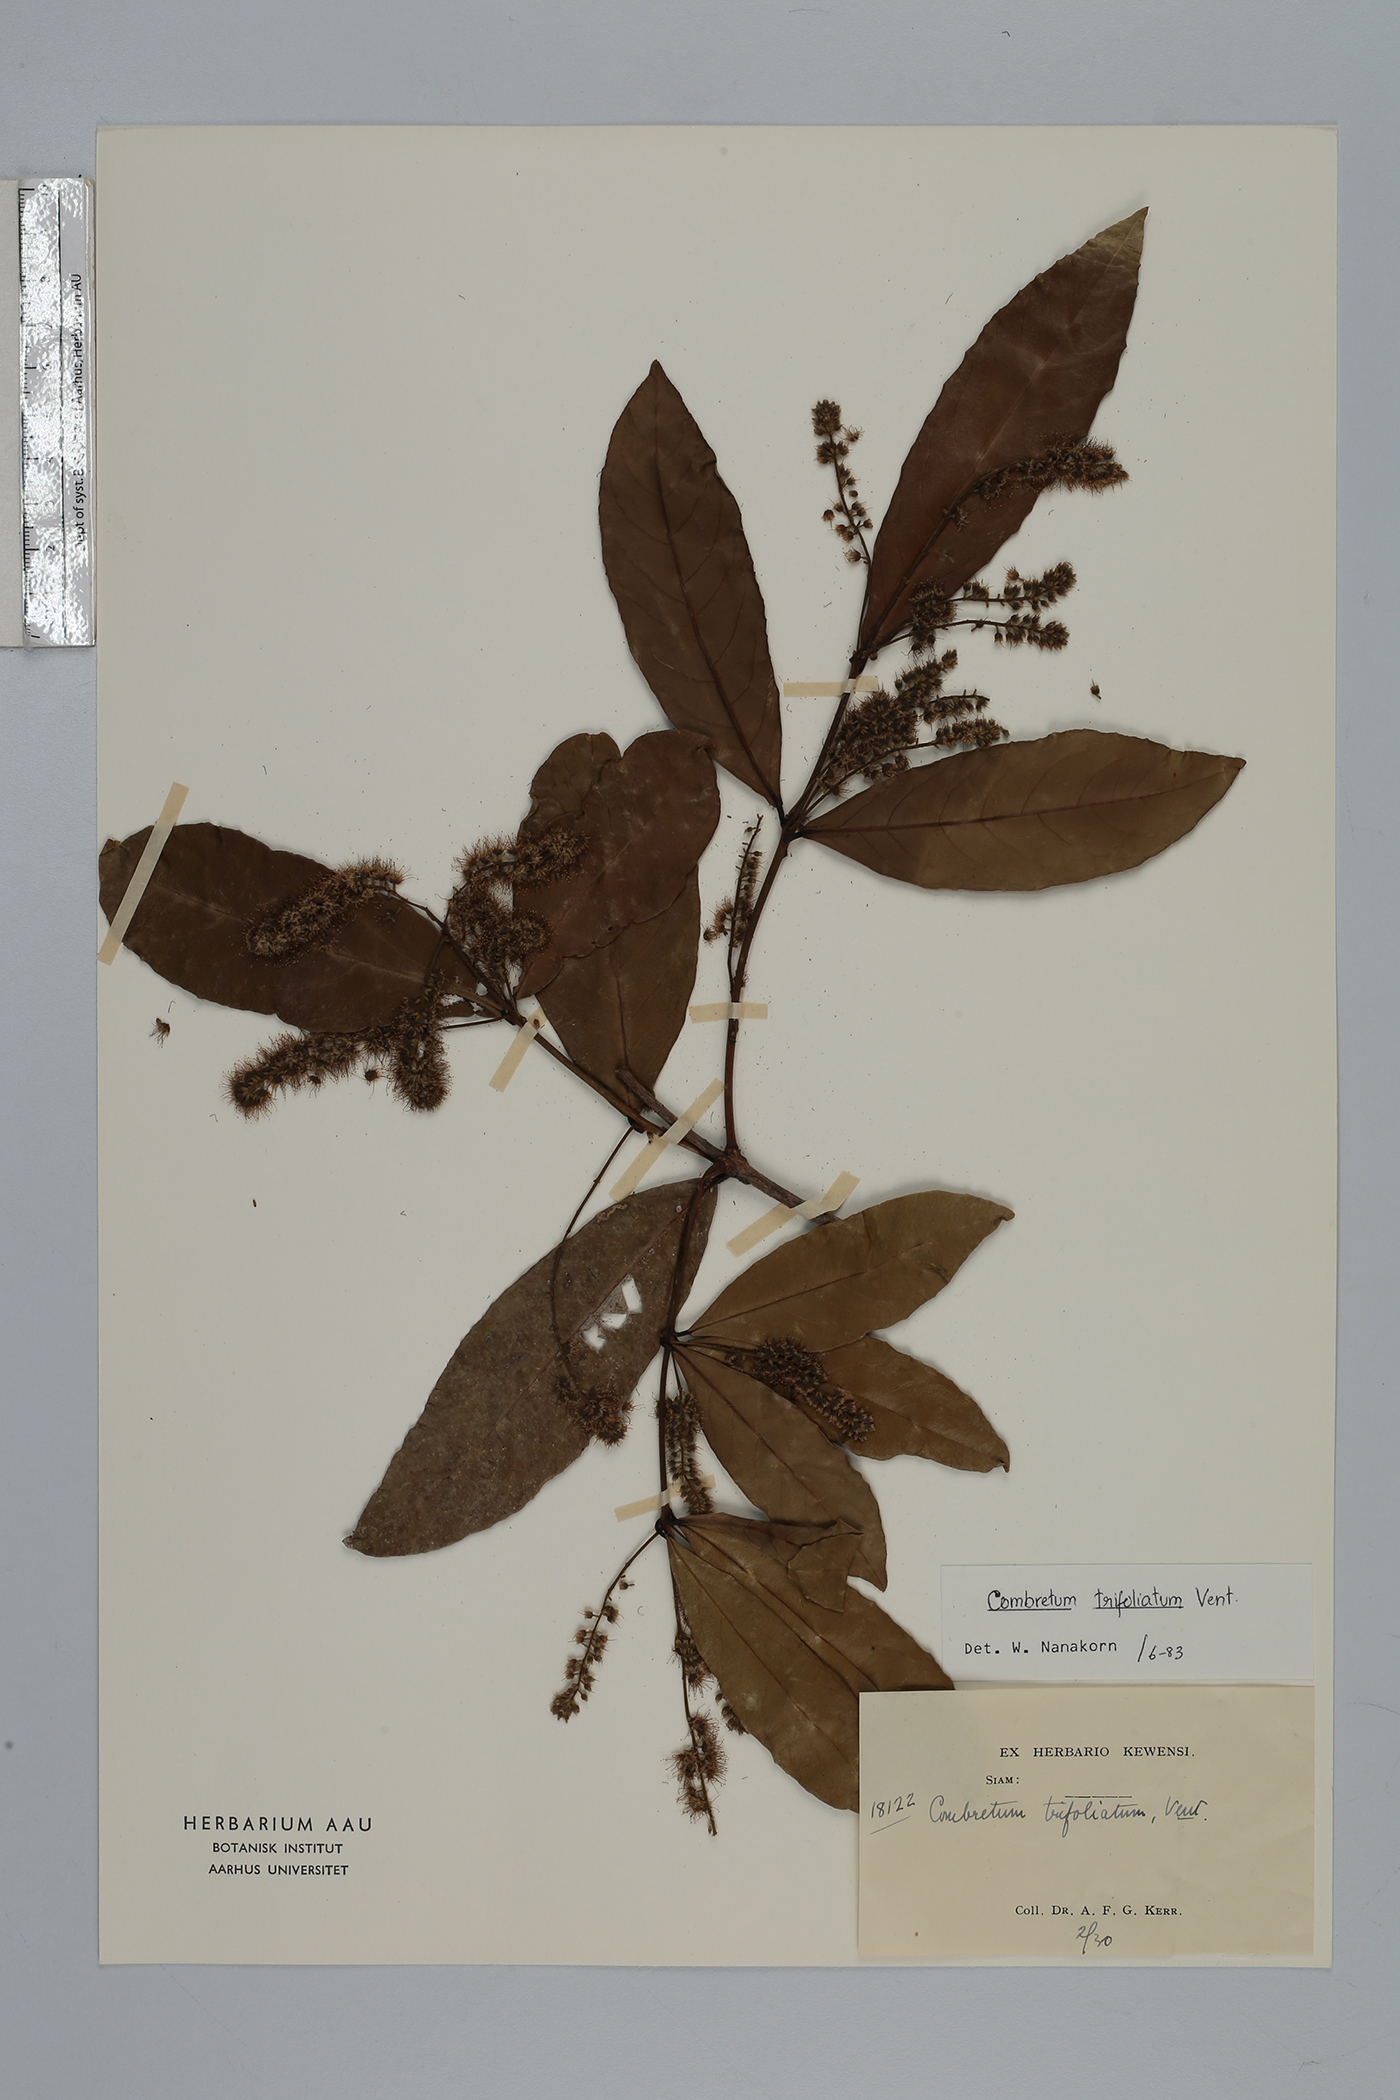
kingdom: Plantae
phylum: Tracheophyta
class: Magnoliopsida
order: Myrtales
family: Combretaceae
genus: Combretum
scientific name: Combretum trifoliatum
